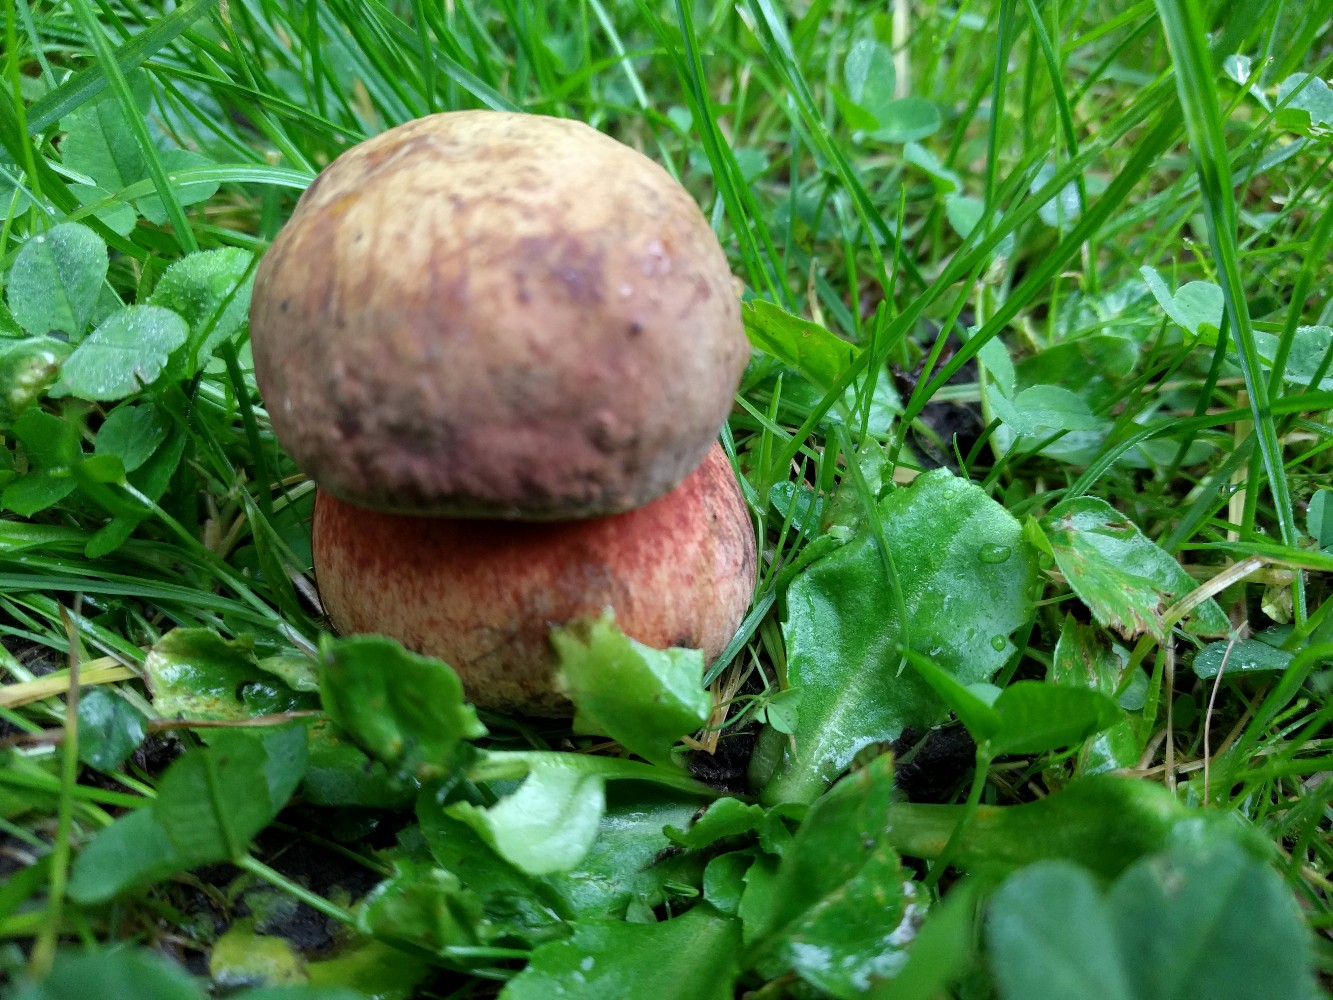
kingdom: Fungi
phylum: Basidiomycota
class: Agaricomycetes
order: Boletales
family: Boletaceae
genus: Suillellus
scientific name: Suillellus luridus
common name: netstokket indigorørhat
